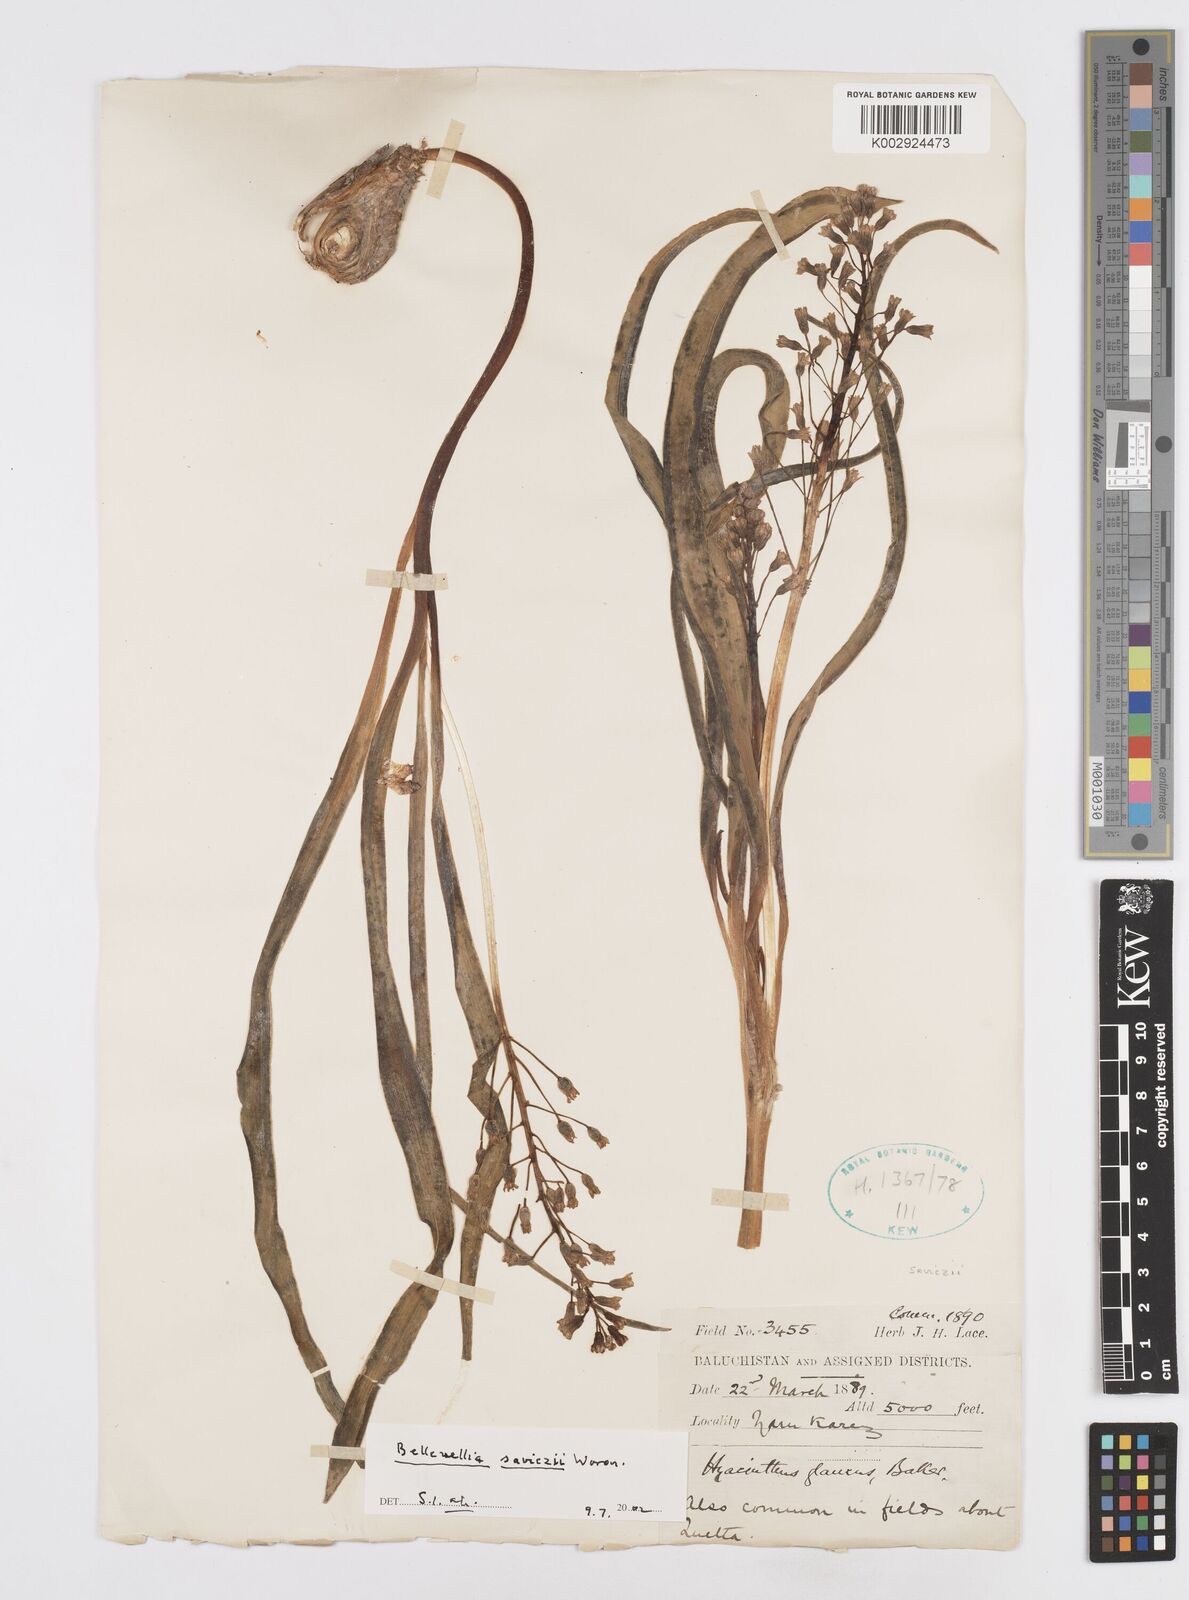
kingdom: Plantae
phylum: Tracheophyta
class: Liliopsida
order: Asparagales
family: Asparagaceae
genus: Bellevalia
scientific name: Bellevalia saviczii
